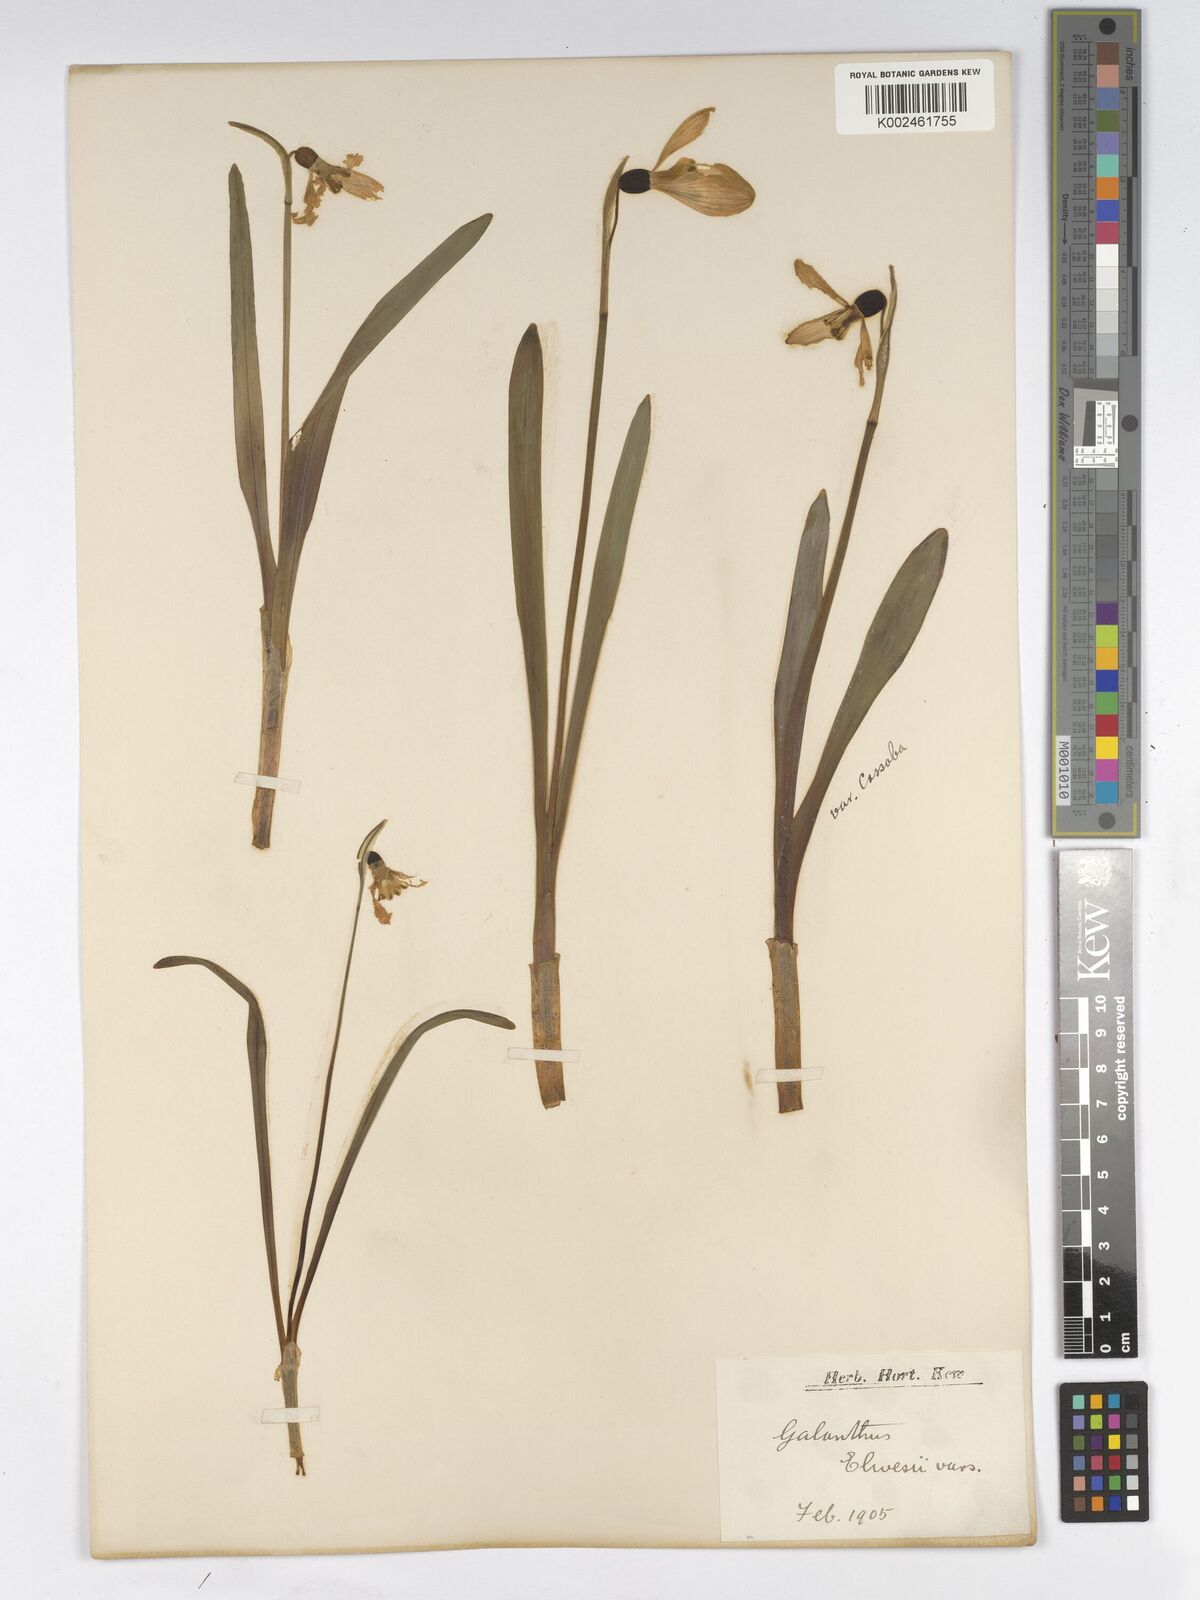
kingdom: Plantae
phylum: Tracheophyta
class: Liliopsida
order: Asparagales
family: Amaryllidaceae
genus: Galanthus
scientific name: Galanthus elwesii
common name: Greater snowdrop
